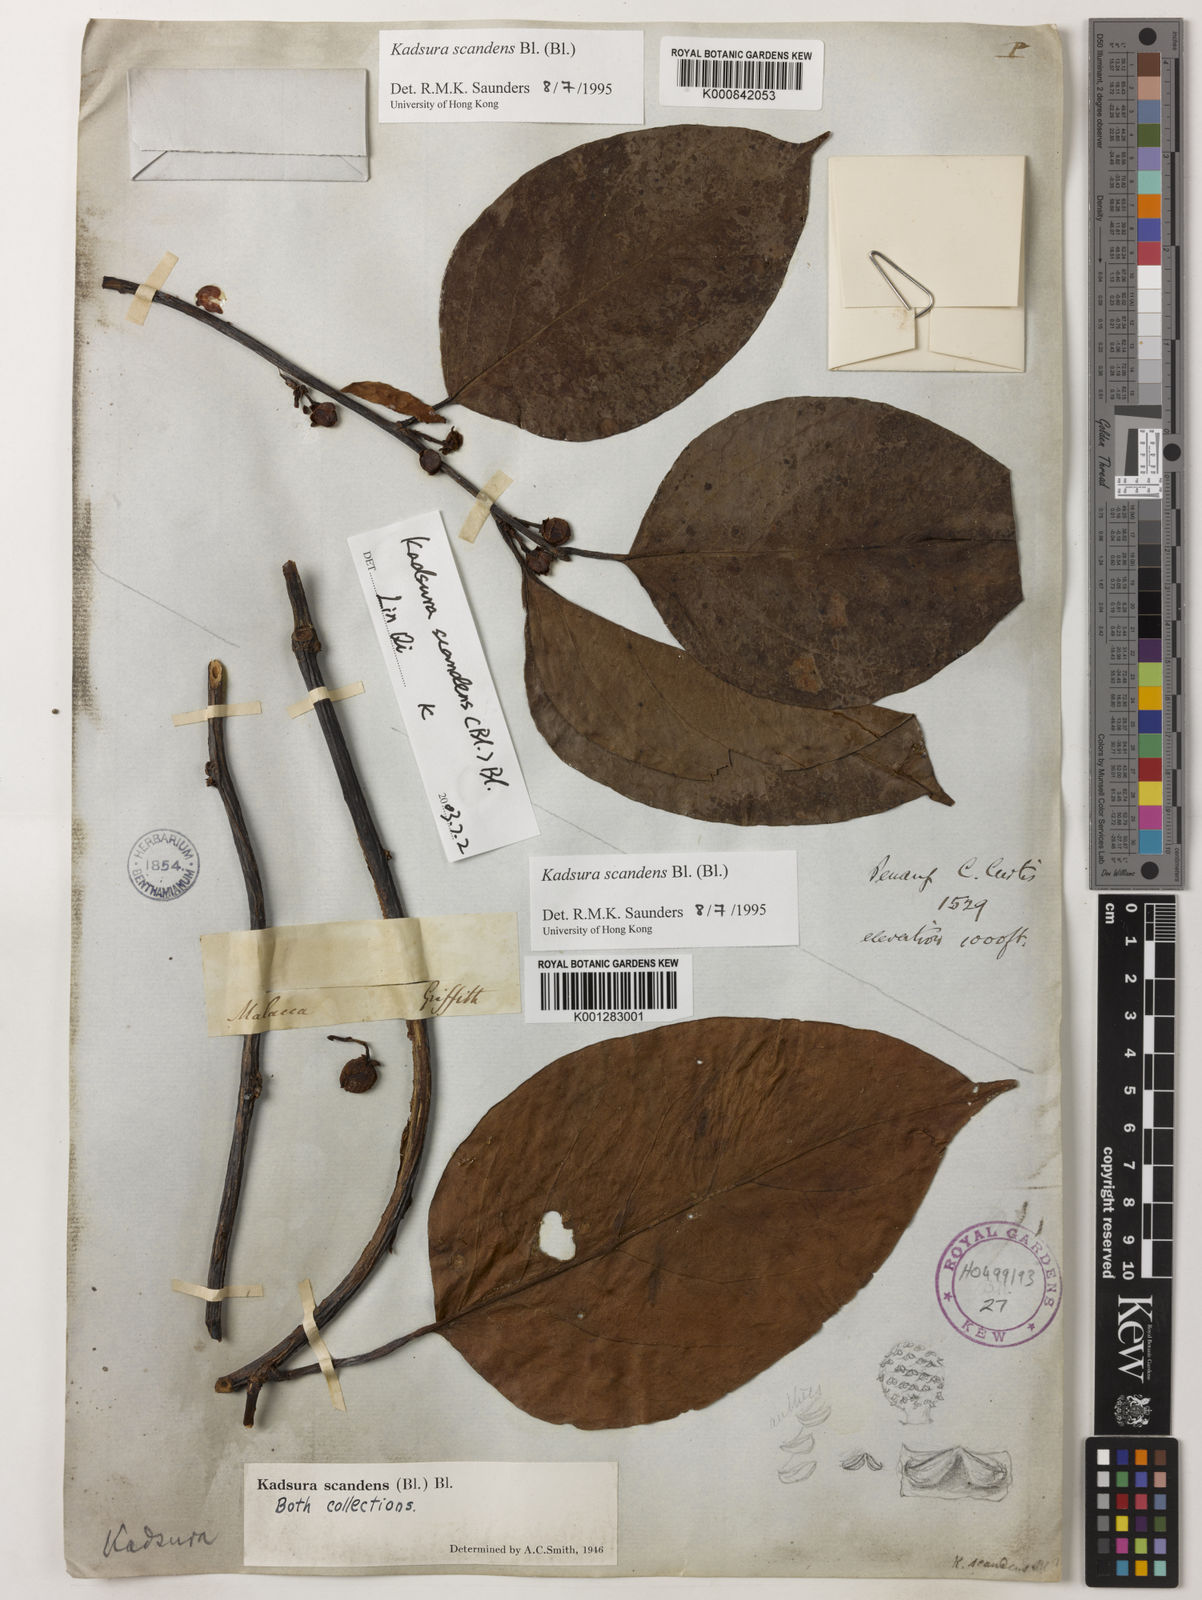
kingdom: Plantae
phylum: Tracheophyta
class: Magnoliopsida
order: Austrobaileyales
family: Schisandraceae
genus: Kadsura
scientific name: Kadsura scandens
